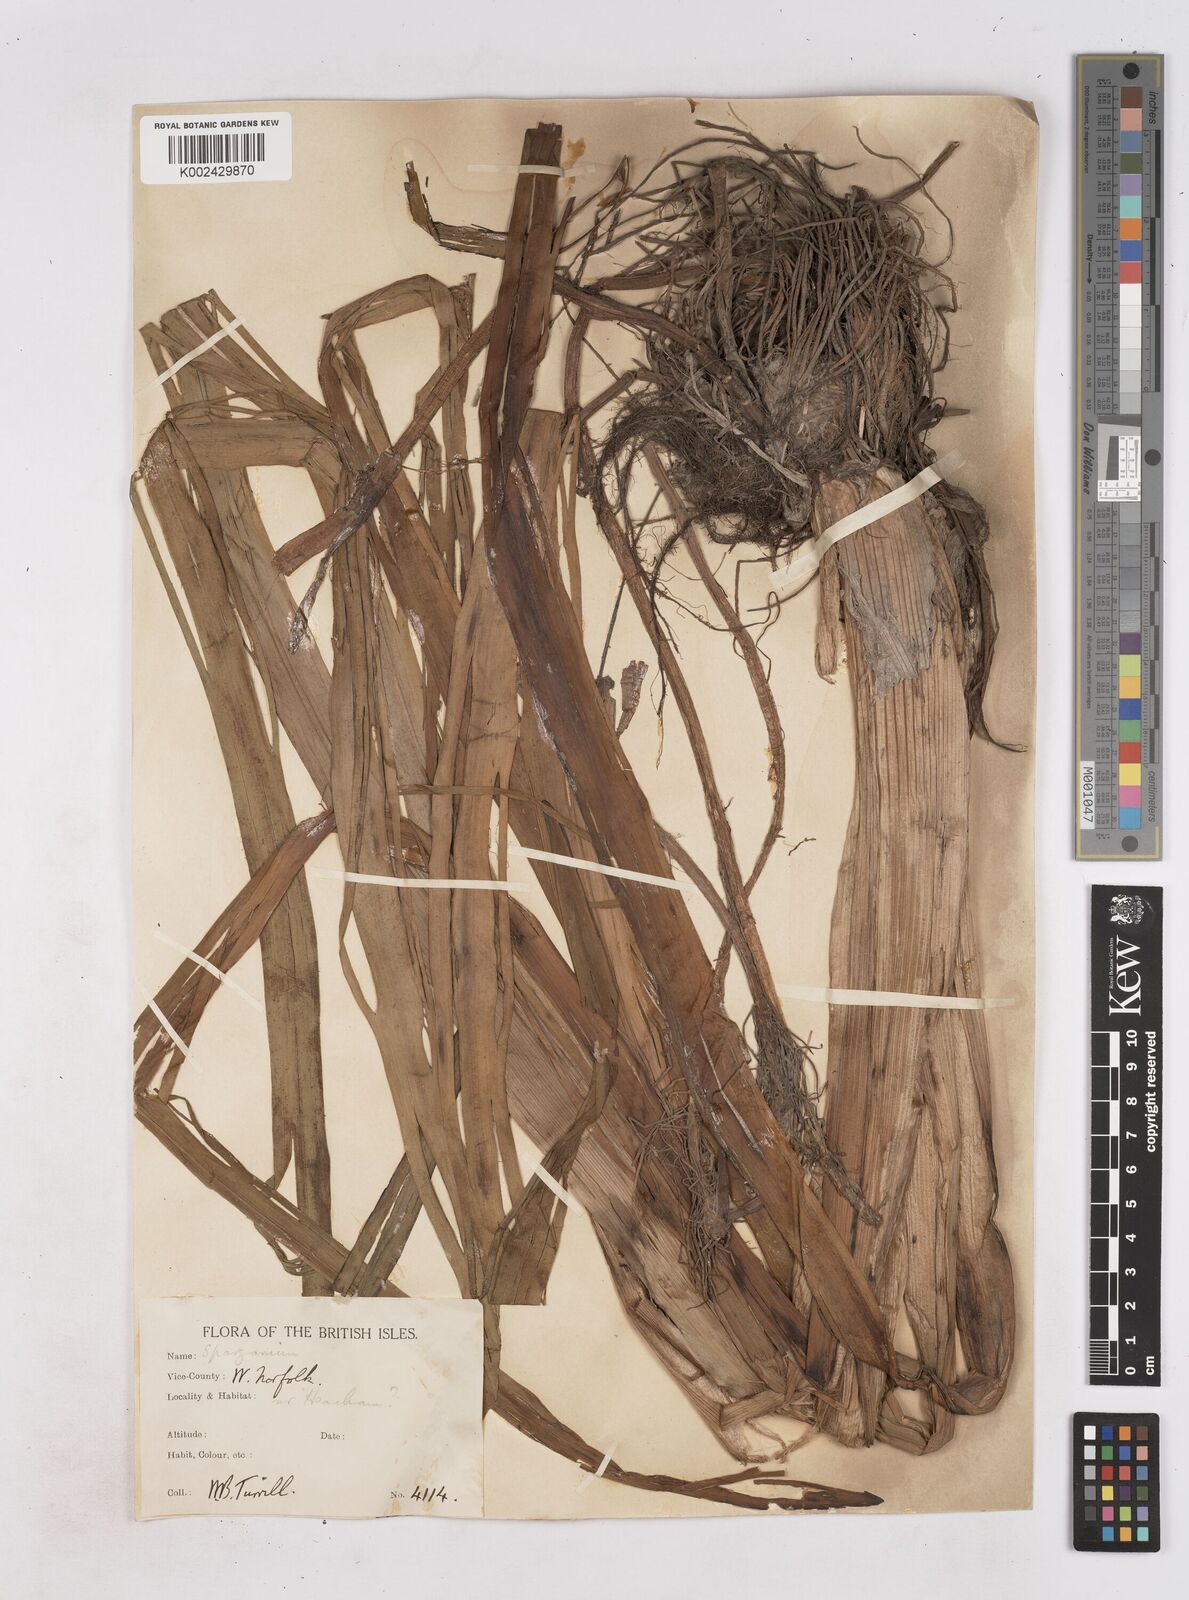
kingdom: Plantae
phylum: Tracheophyta
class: Liliopsida
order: Poales
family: Typhaceae
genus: Sparganium
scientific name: Sparganium erectum
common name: Branched bur-reed
